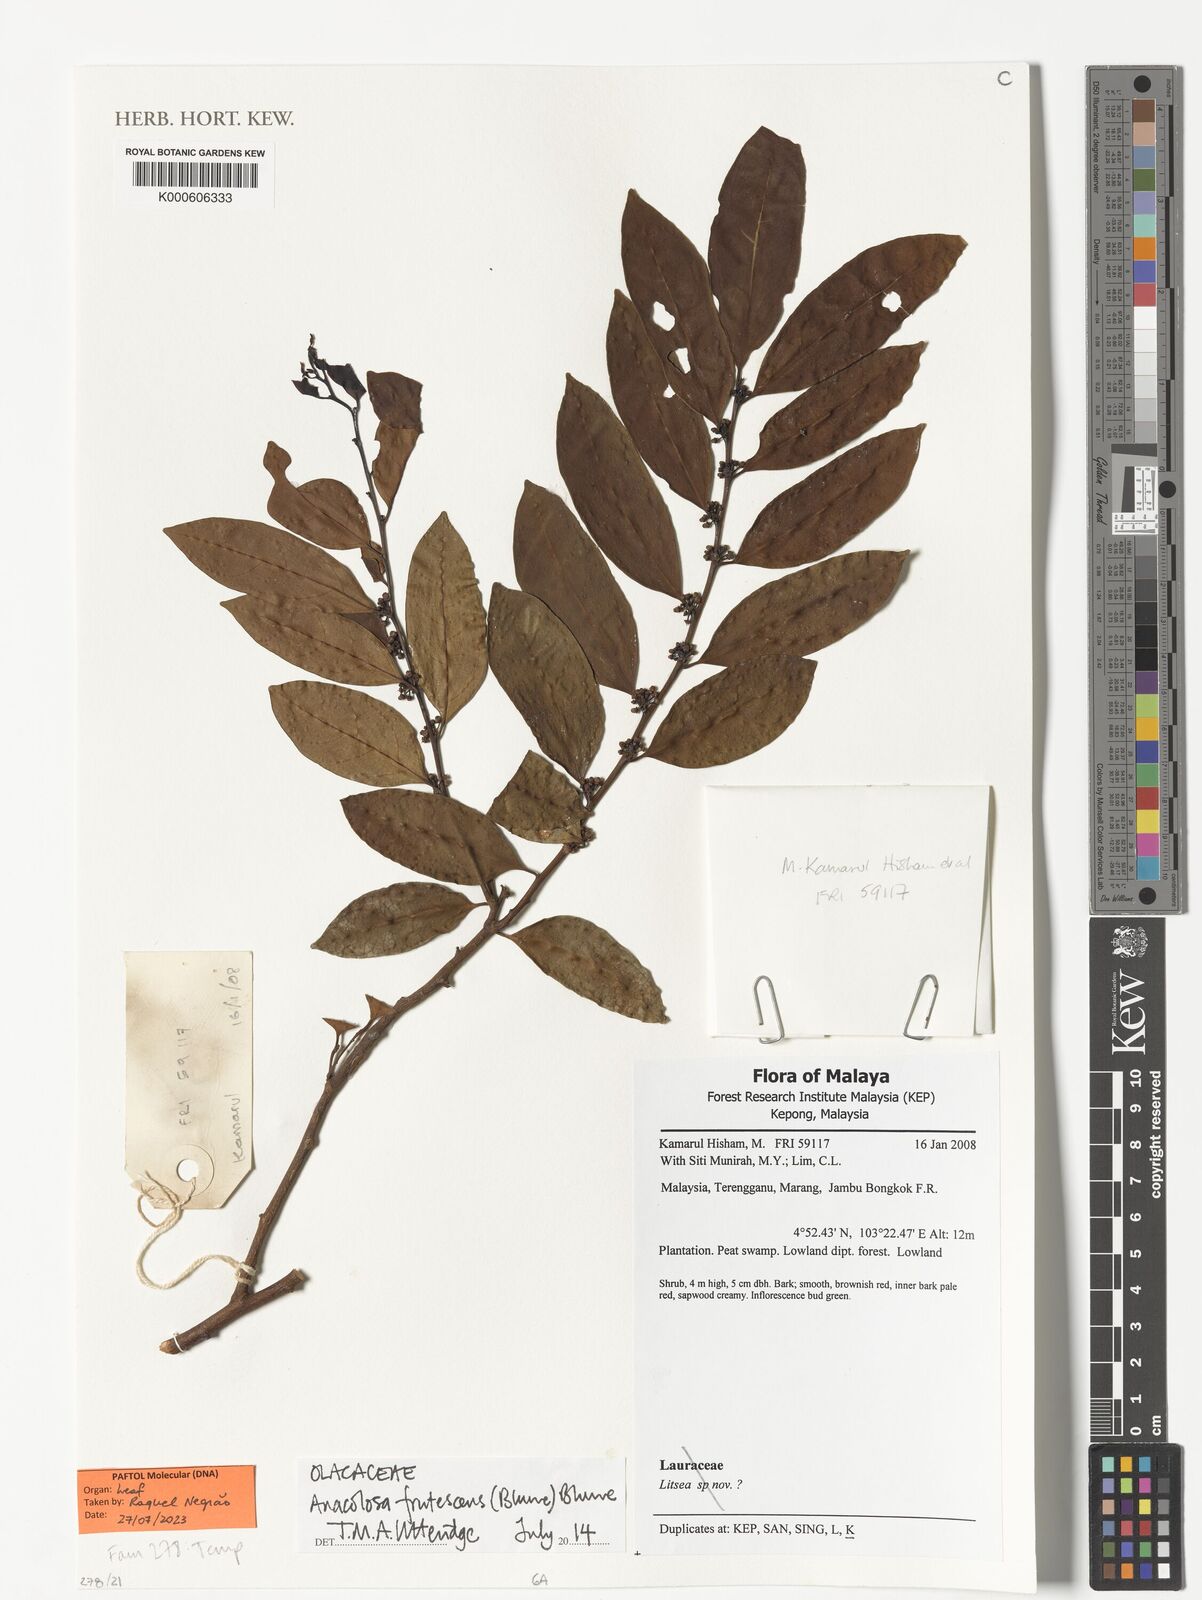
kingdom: Plantae
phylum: Tracheophyta
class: Magnoliopsida
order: Santalales
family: Aptandraceae
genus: Anacolosa
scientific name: Anacolosa frutescens
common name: Galo nut
